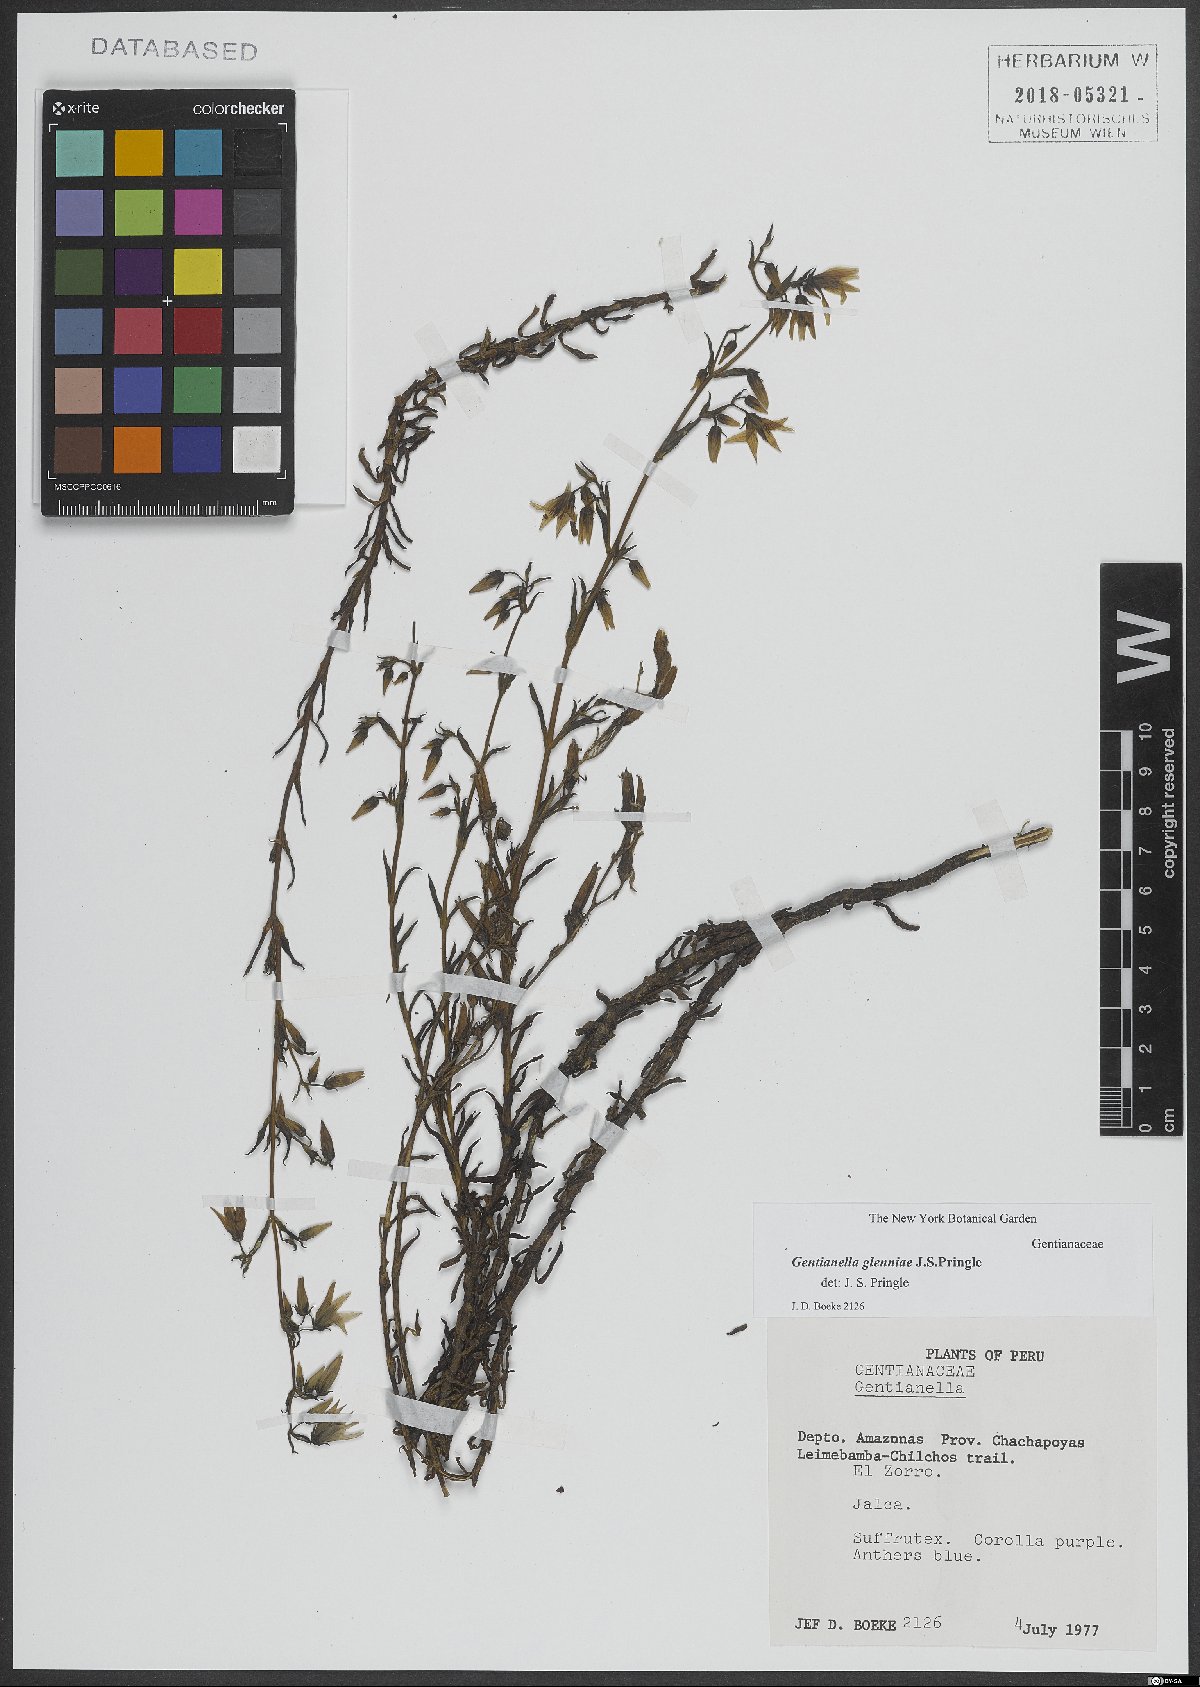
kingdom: Plantae
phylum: Tracheophyta
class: Magnoliopsida
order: Gentianales
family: Gentianaceae
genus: Gentianella
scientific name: Gentianella glenniae
